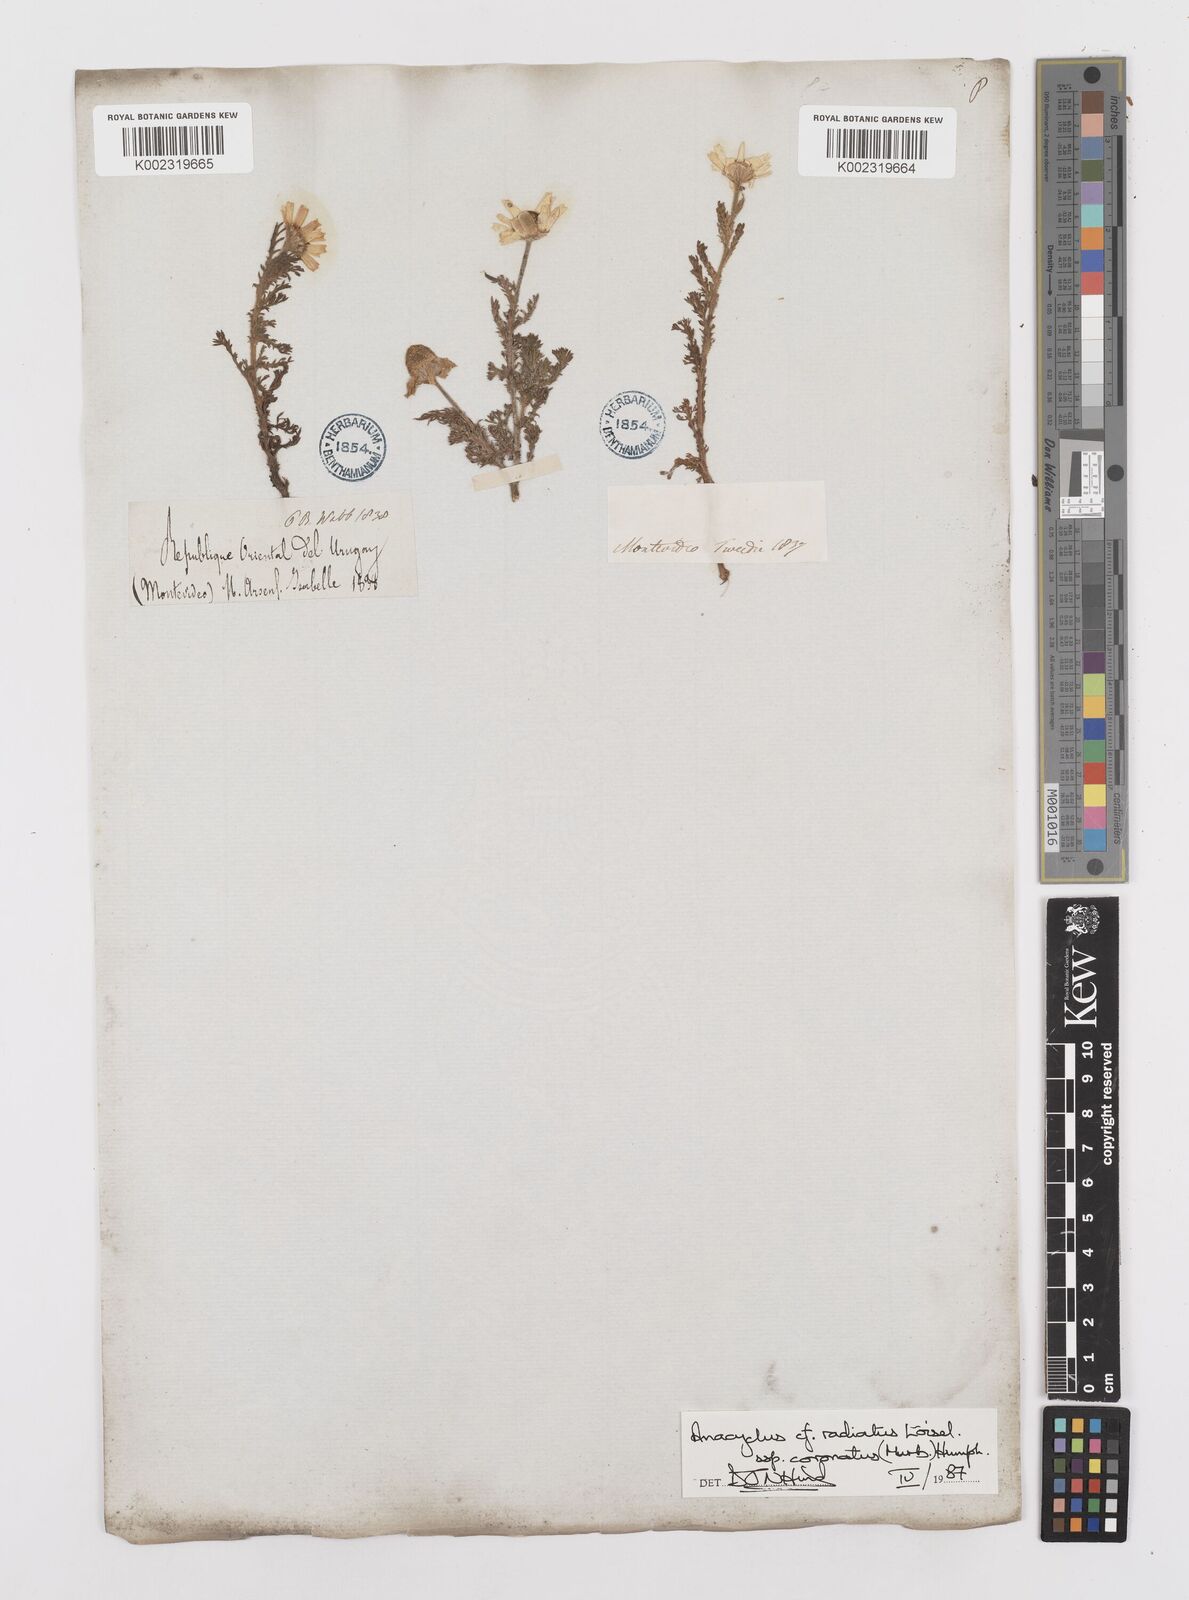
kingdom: Plantae
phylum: Tracheophyta
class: Magnoliopsida
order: Asterales
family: Asteraceae
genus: Anacyclus
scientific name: Anacyclus radiatus
